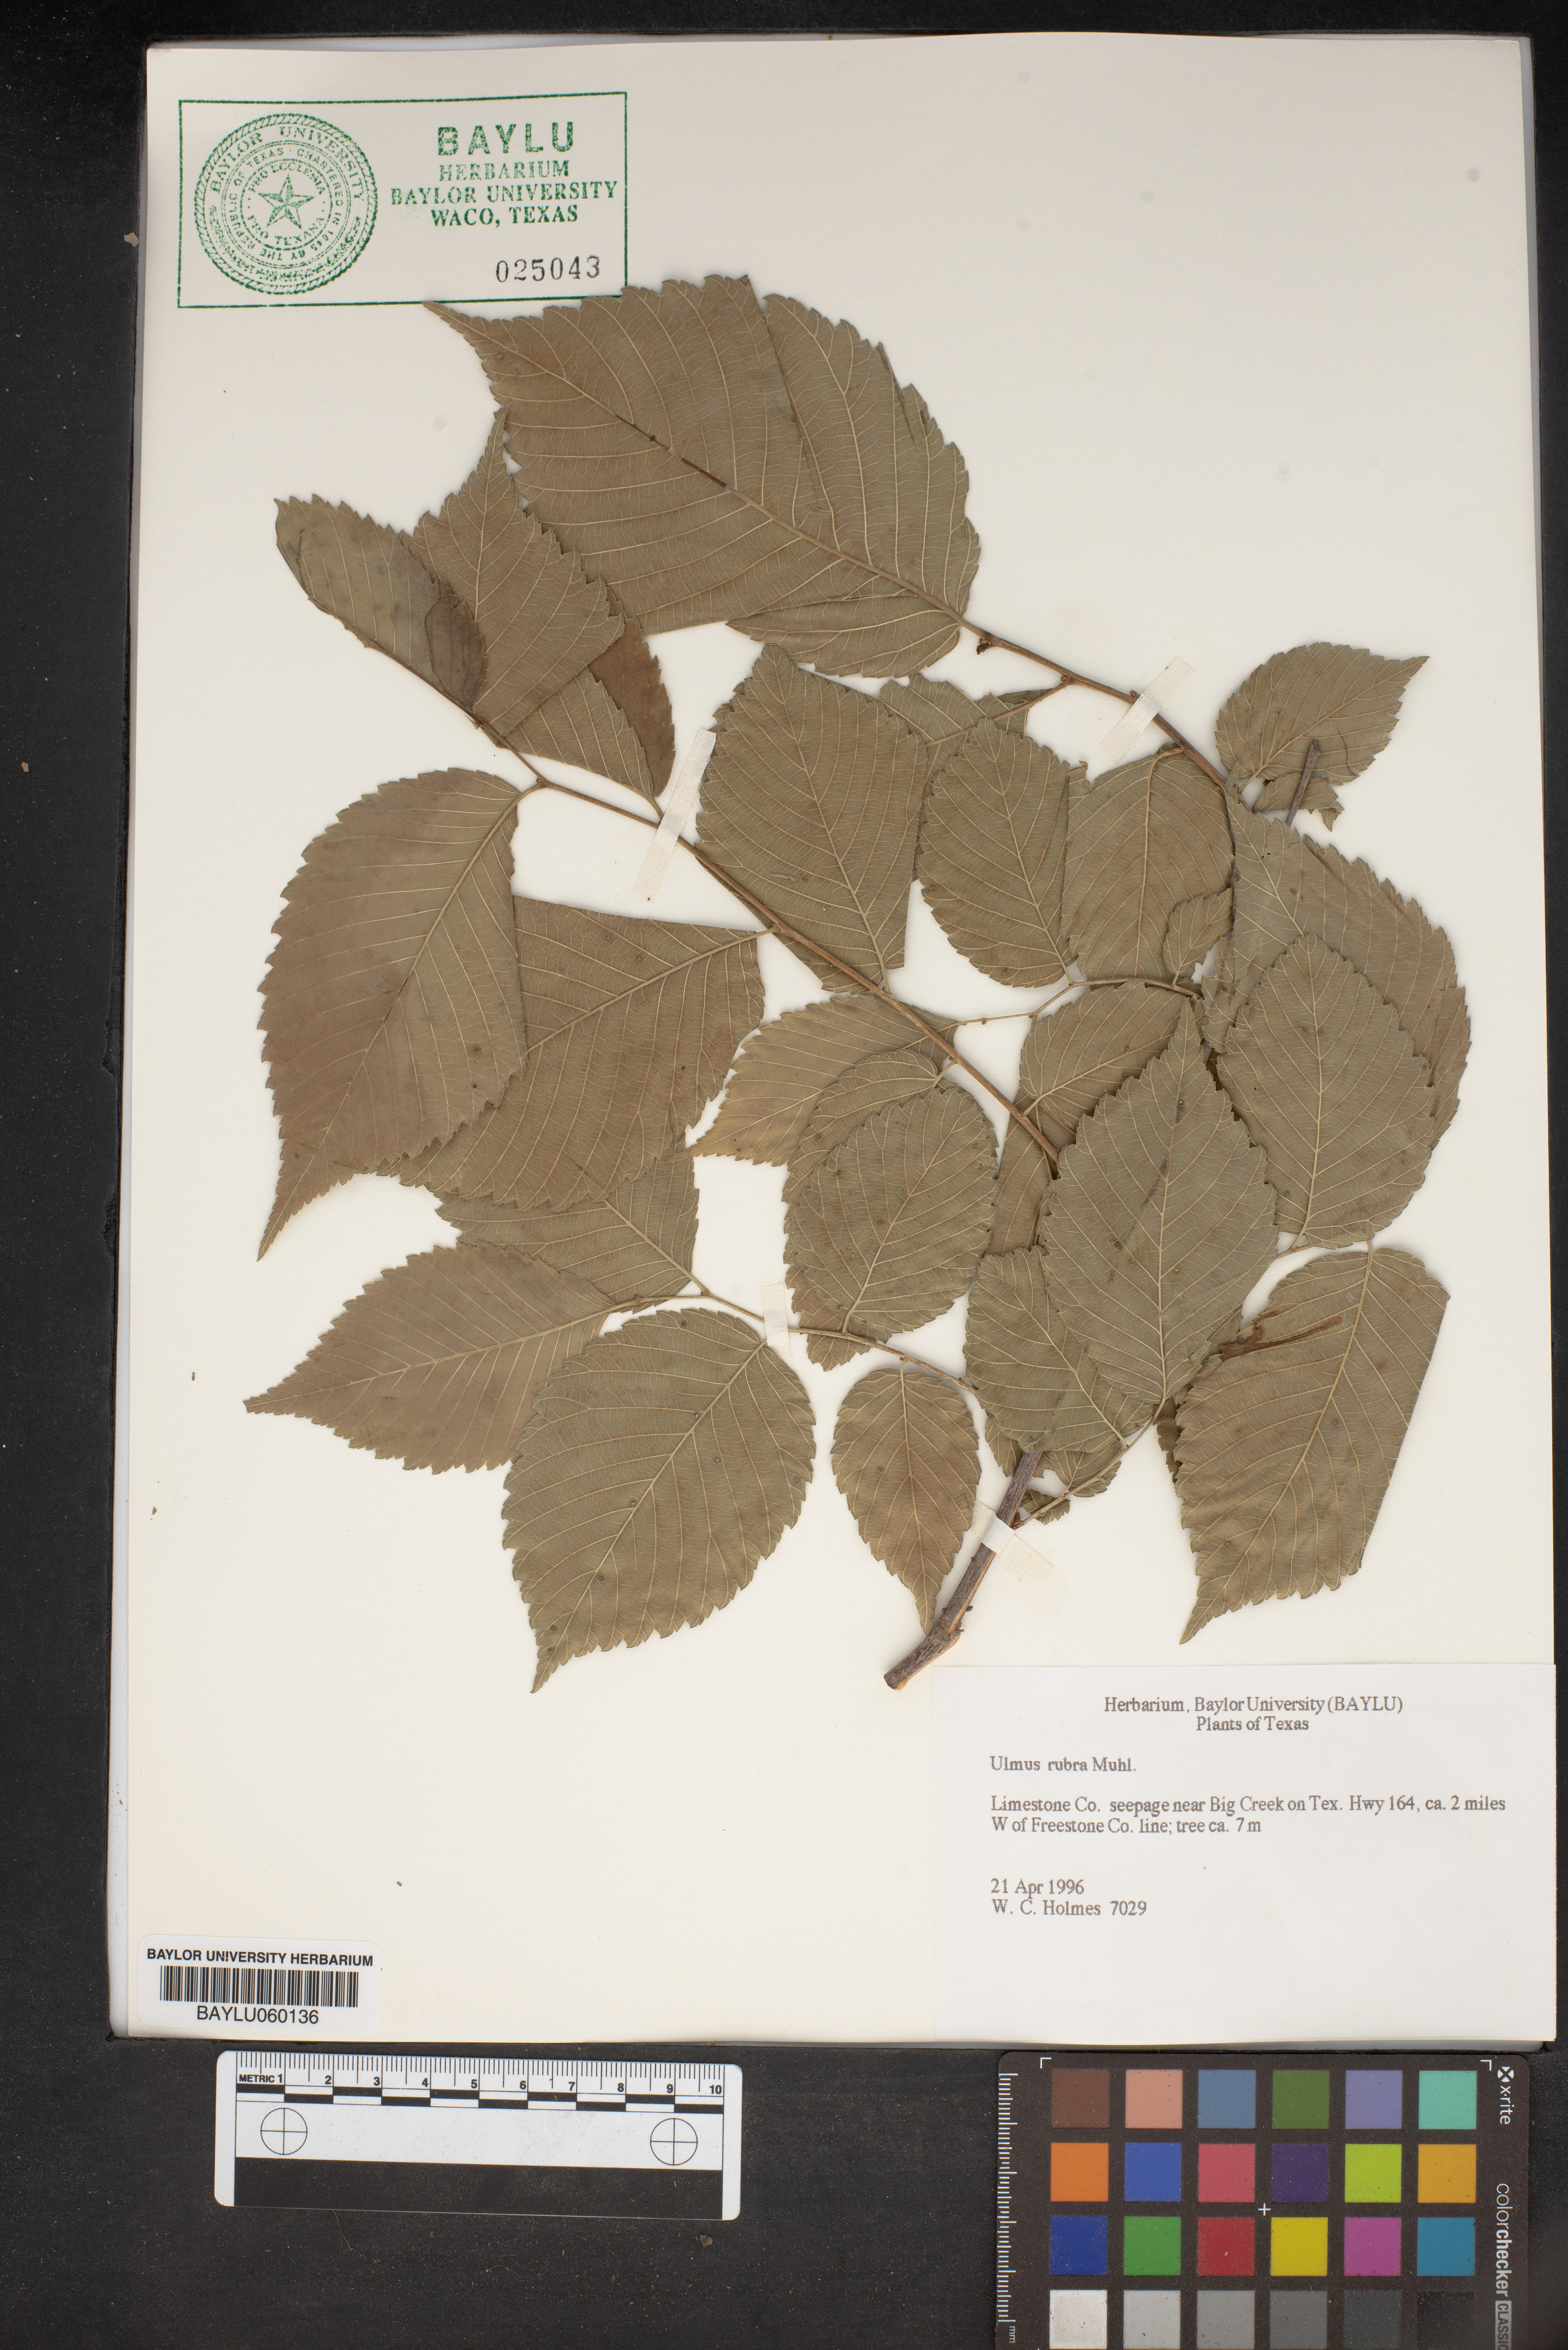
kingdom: Plantae
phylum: Tracheophyta
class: Magnoliopsida
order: Rosales
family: Ulmaceae
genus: Ulmus
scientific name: Ulmus rubra
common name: Slippery elm
